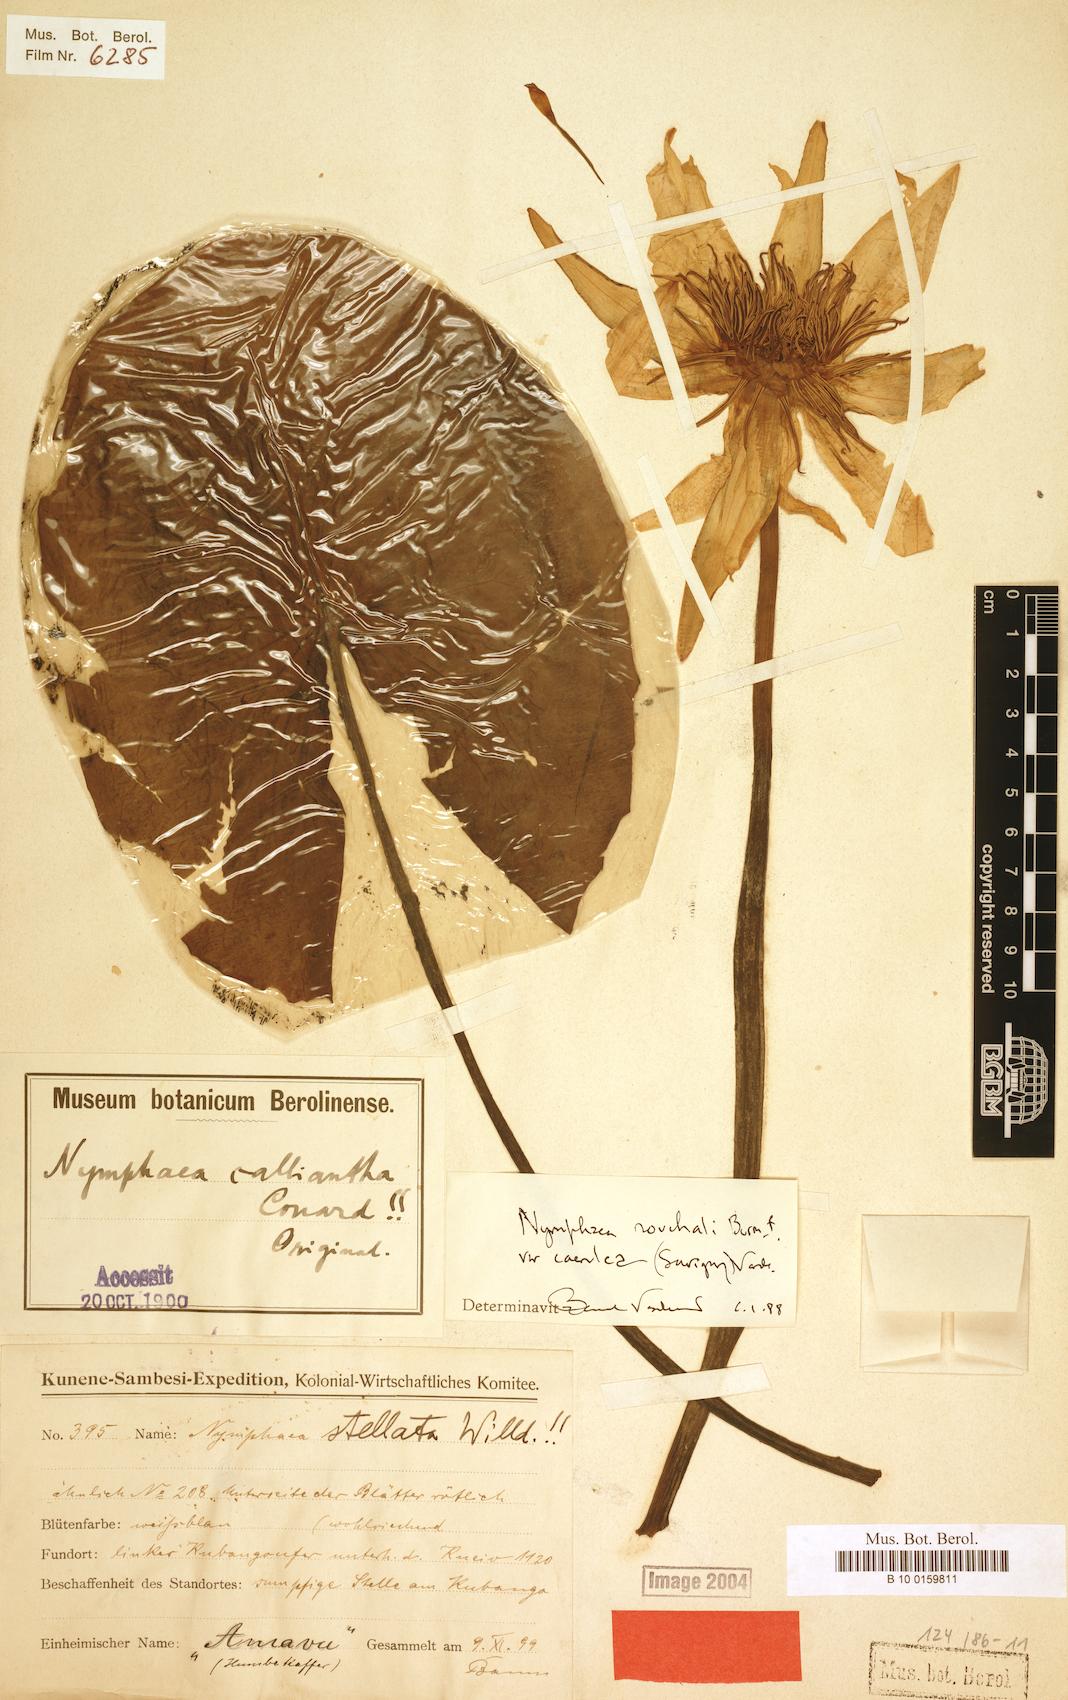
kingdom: Plantae
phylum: Tracheophyta
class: Magnoliopsida
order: Nymphaeales
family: Nymphaeaceae
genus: Nymphaea
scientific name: Nymphaea nouchali
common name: Blue lotus
